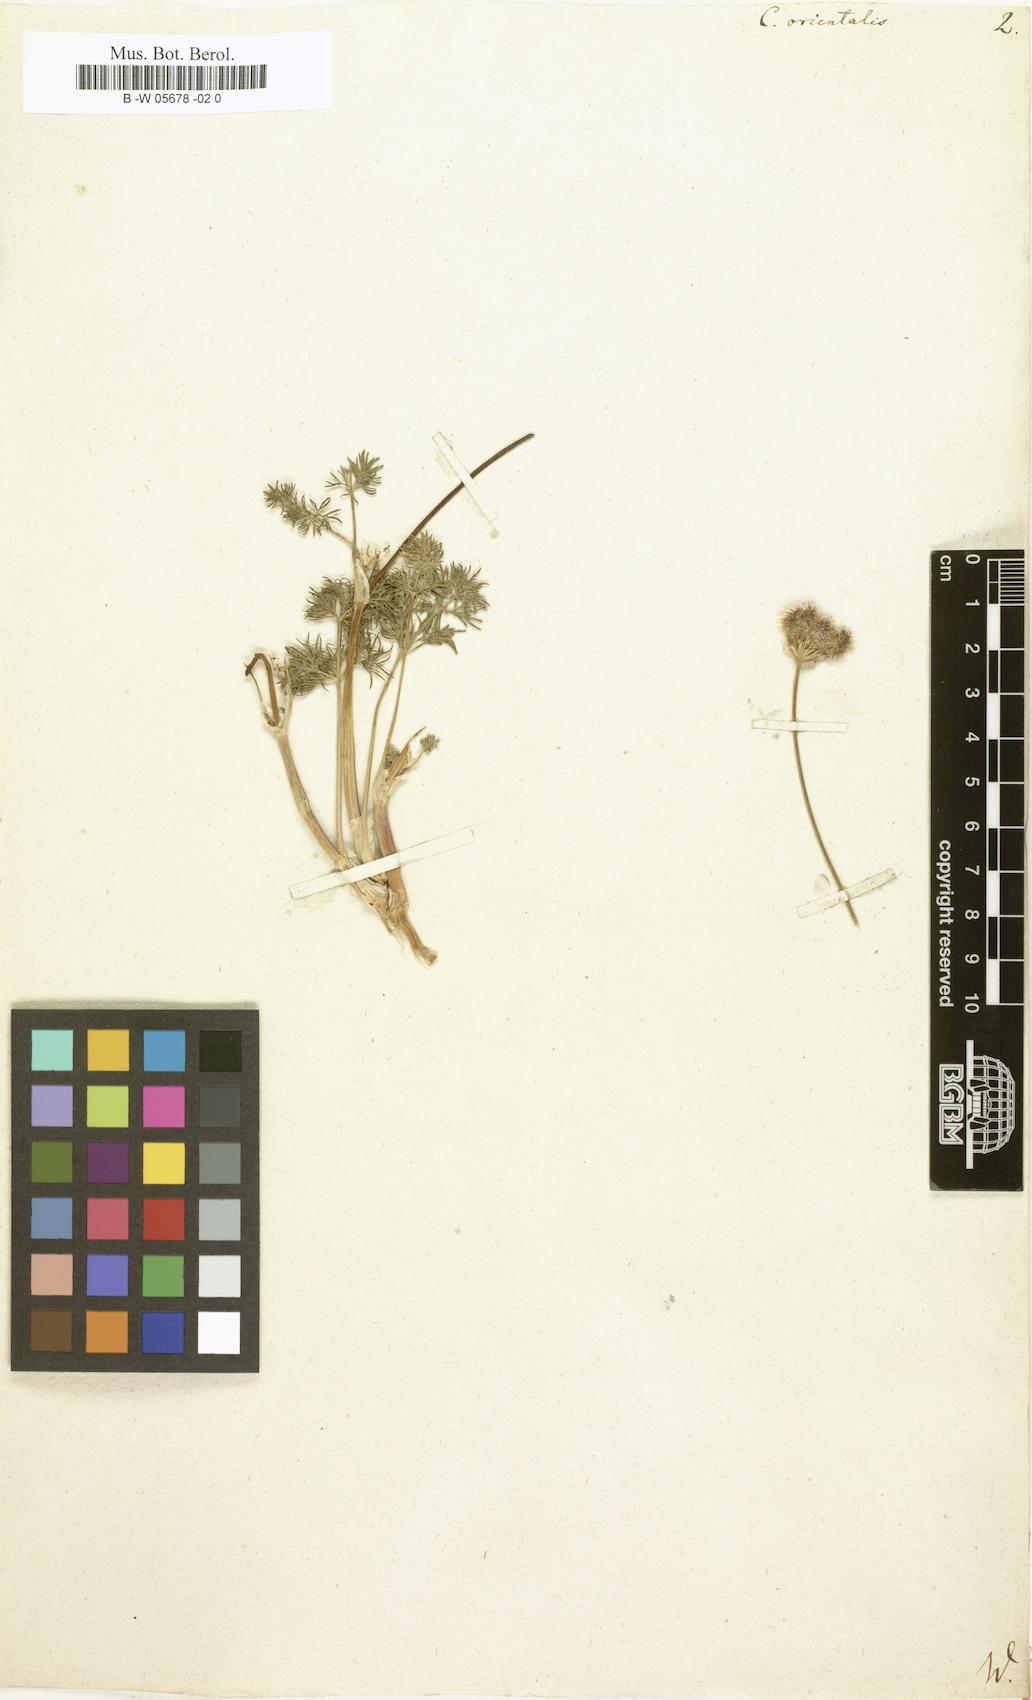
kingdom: Plantae
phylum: Tracheophyta
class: Magnoliopsida
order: Apiales
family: Apiaceae
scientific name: Apiaceae
